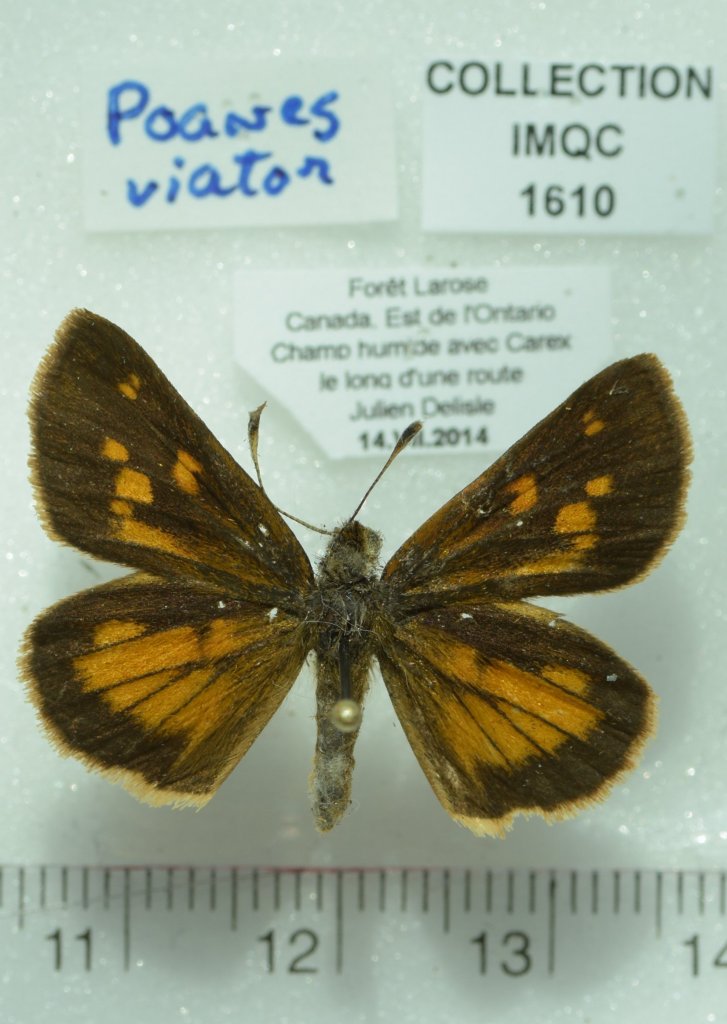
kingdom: Animalia
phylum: Arthropoda
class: Insecta
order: Lepidoptera
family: Hesperiidae
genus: Poanes
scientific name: Poanes viator
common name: Broad-winged Skipper
